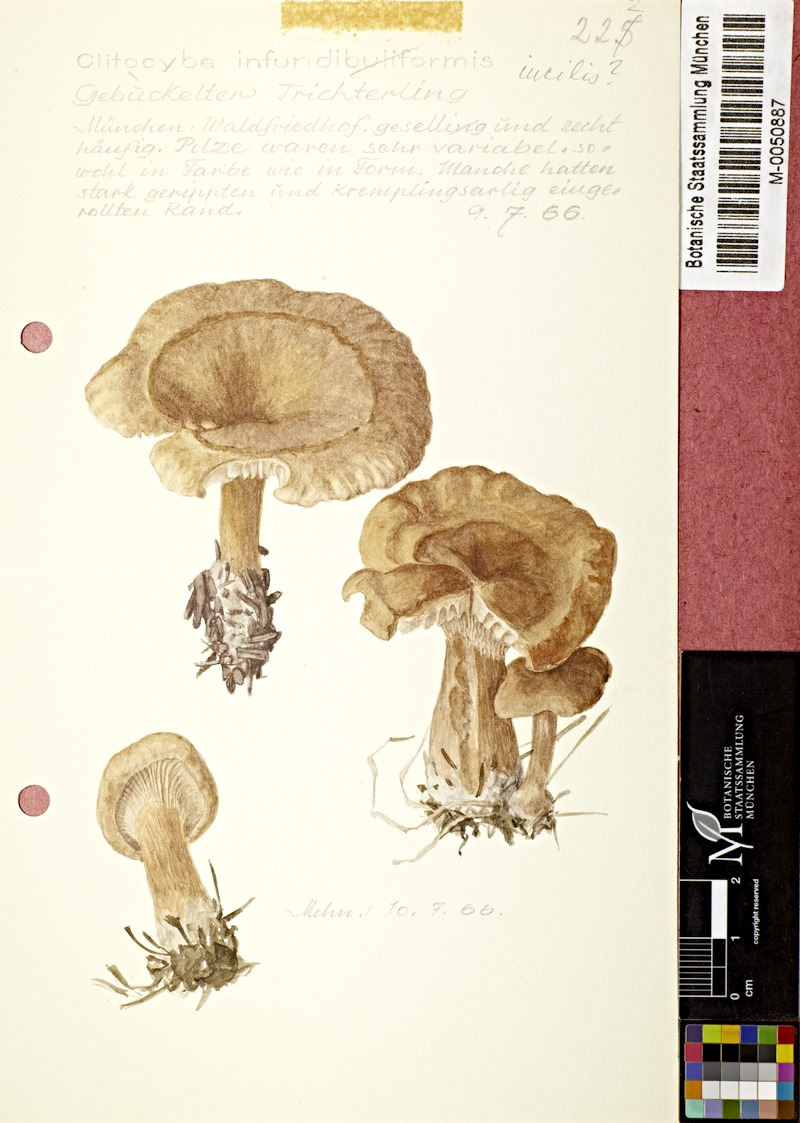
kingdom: Fungi
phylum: Basidiomycota
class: Agaricomycetes
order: Agaricales
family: Tricholomataceae
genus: Clitocybe
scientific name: Clitocybe incilis
